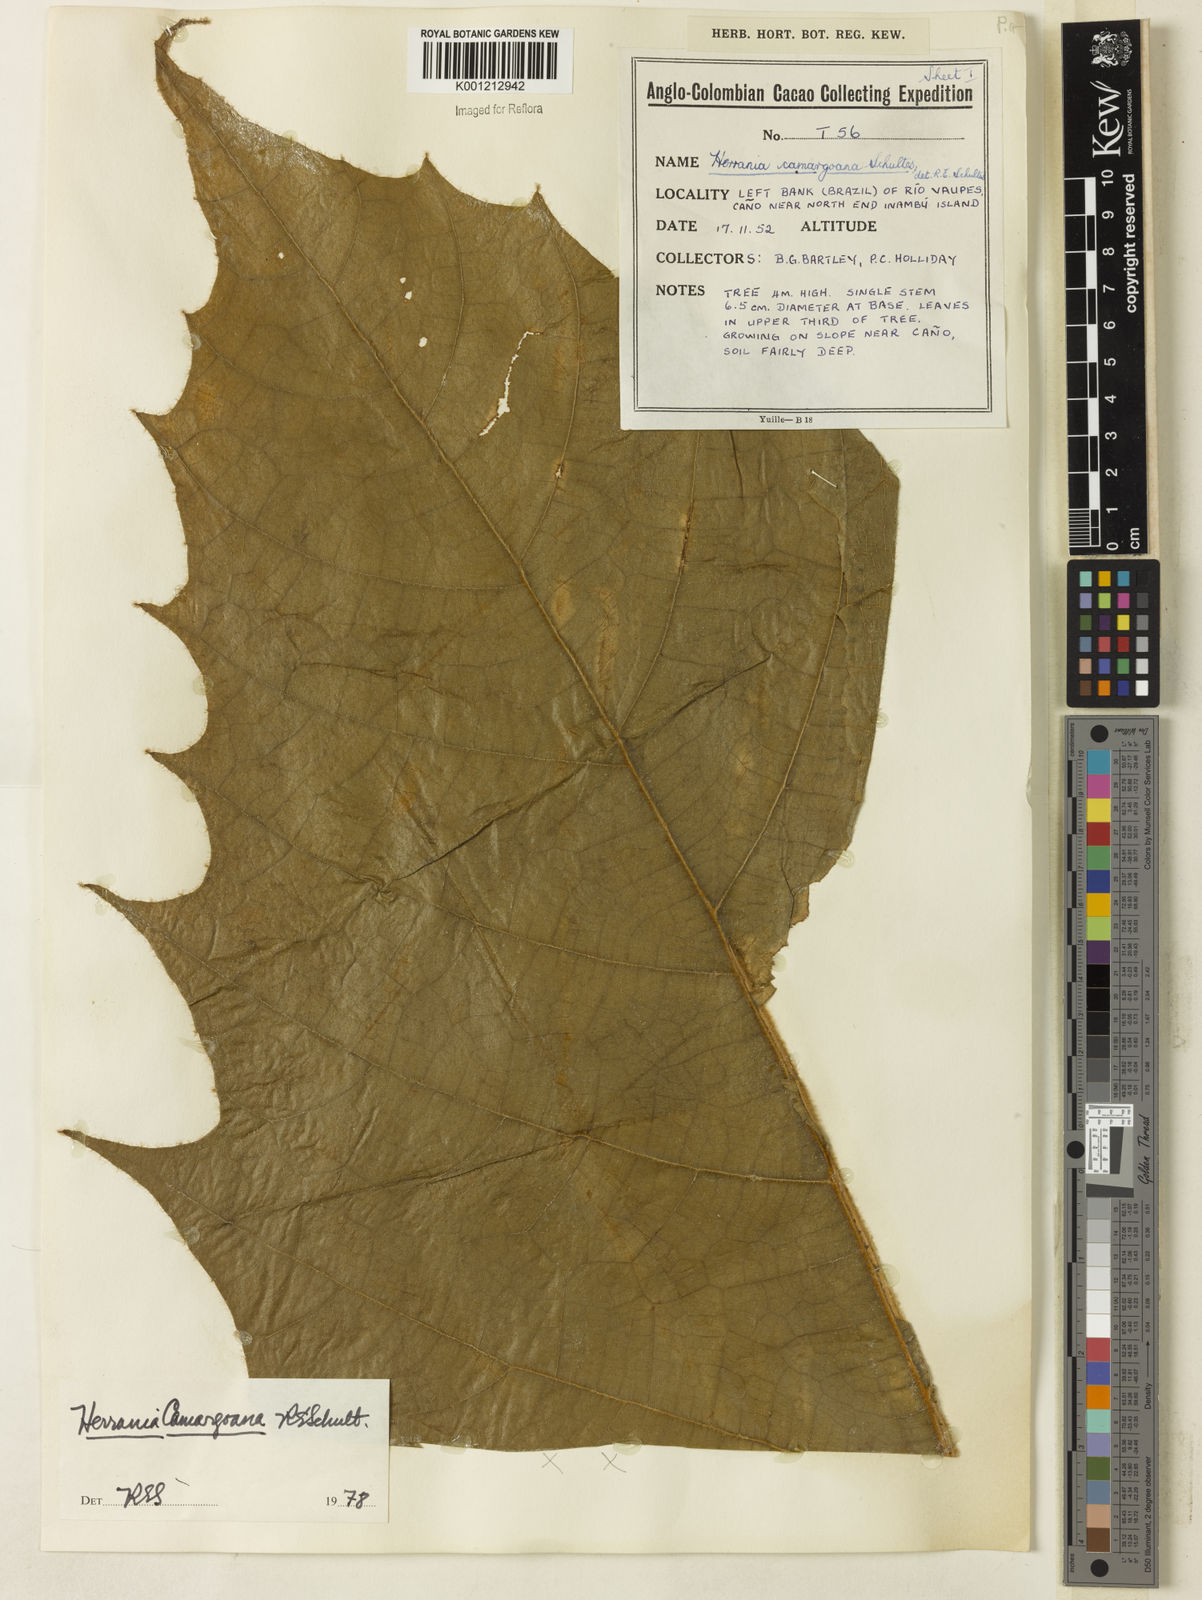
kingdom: Plantae
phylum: Tracheophyta
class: Magnoliopsida
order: Malvales
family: Malvaceae
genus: Herrania
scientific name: Herrania camargoana
